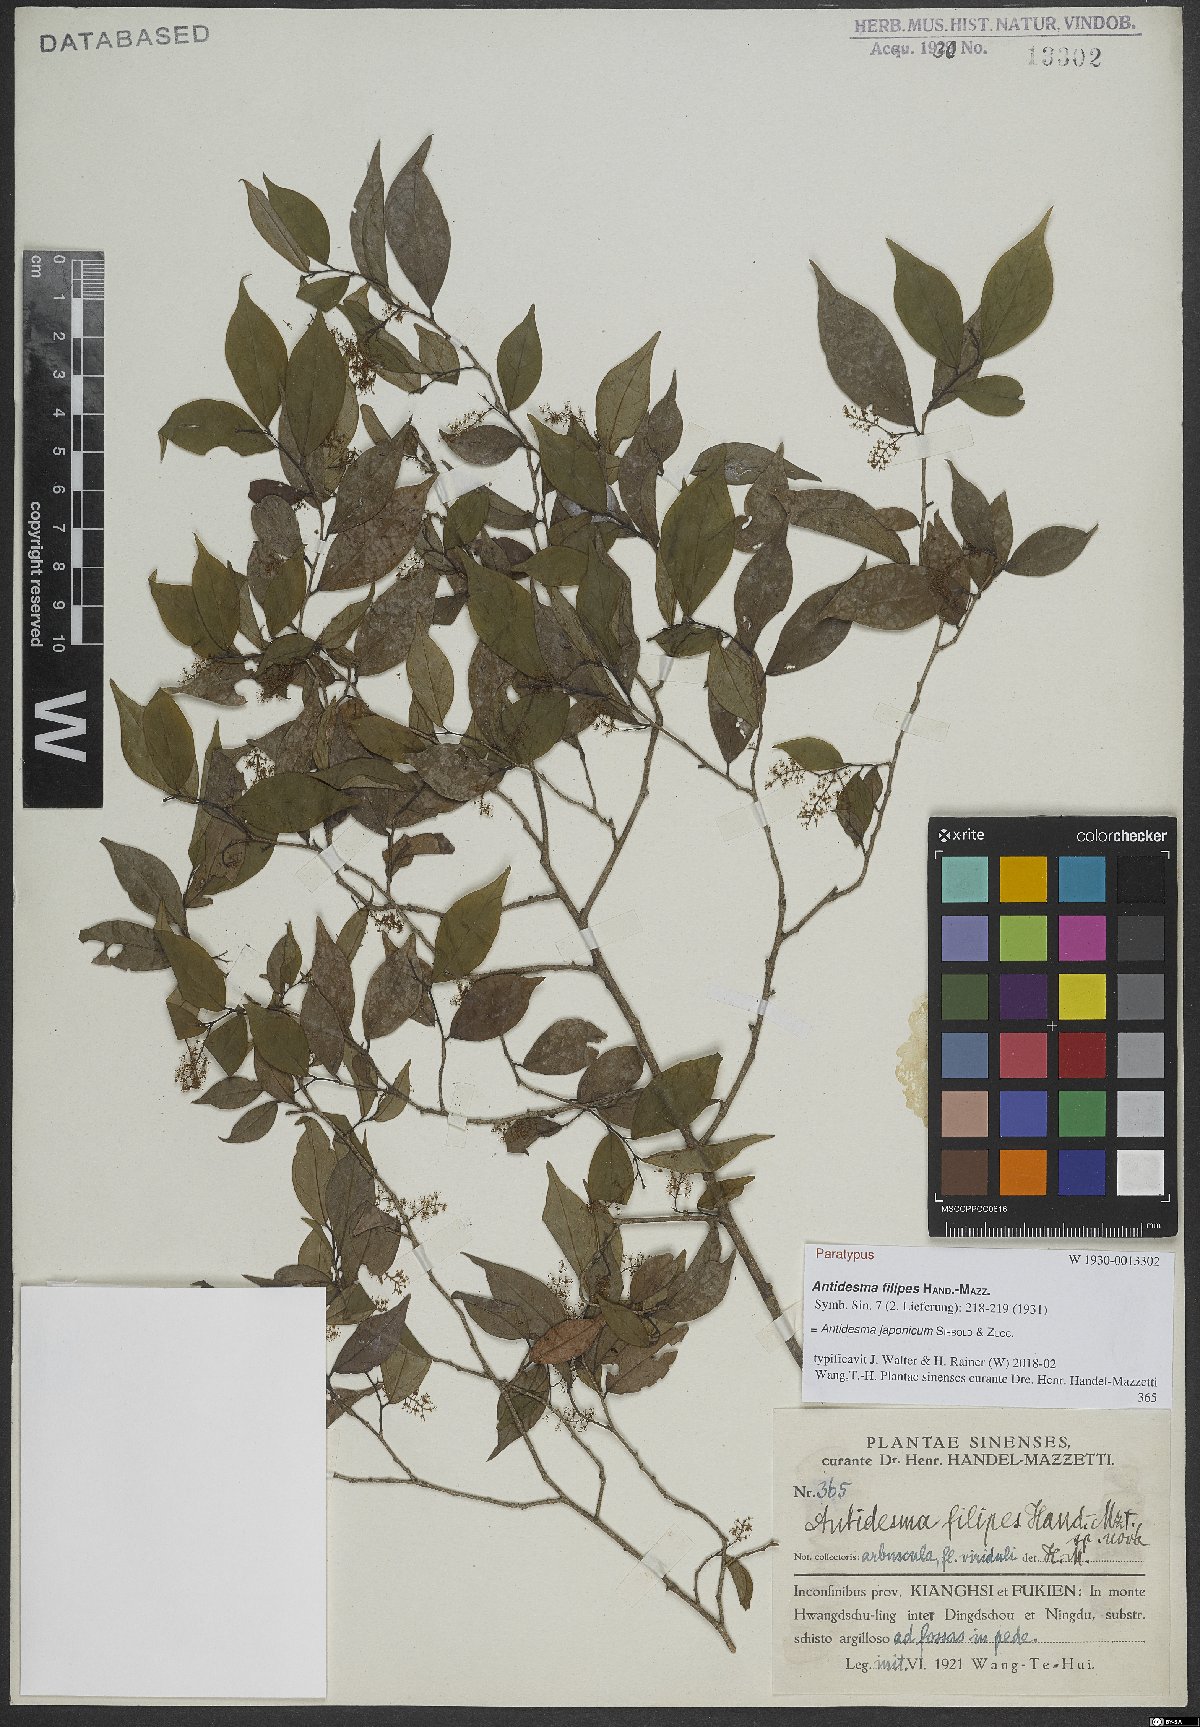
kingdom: Plantae
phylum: Tracheophyta
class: Magnoliopsida
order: Malpighiales
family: Phyllanthaceae
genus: Antidesma
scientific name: Antidesma japonicum
